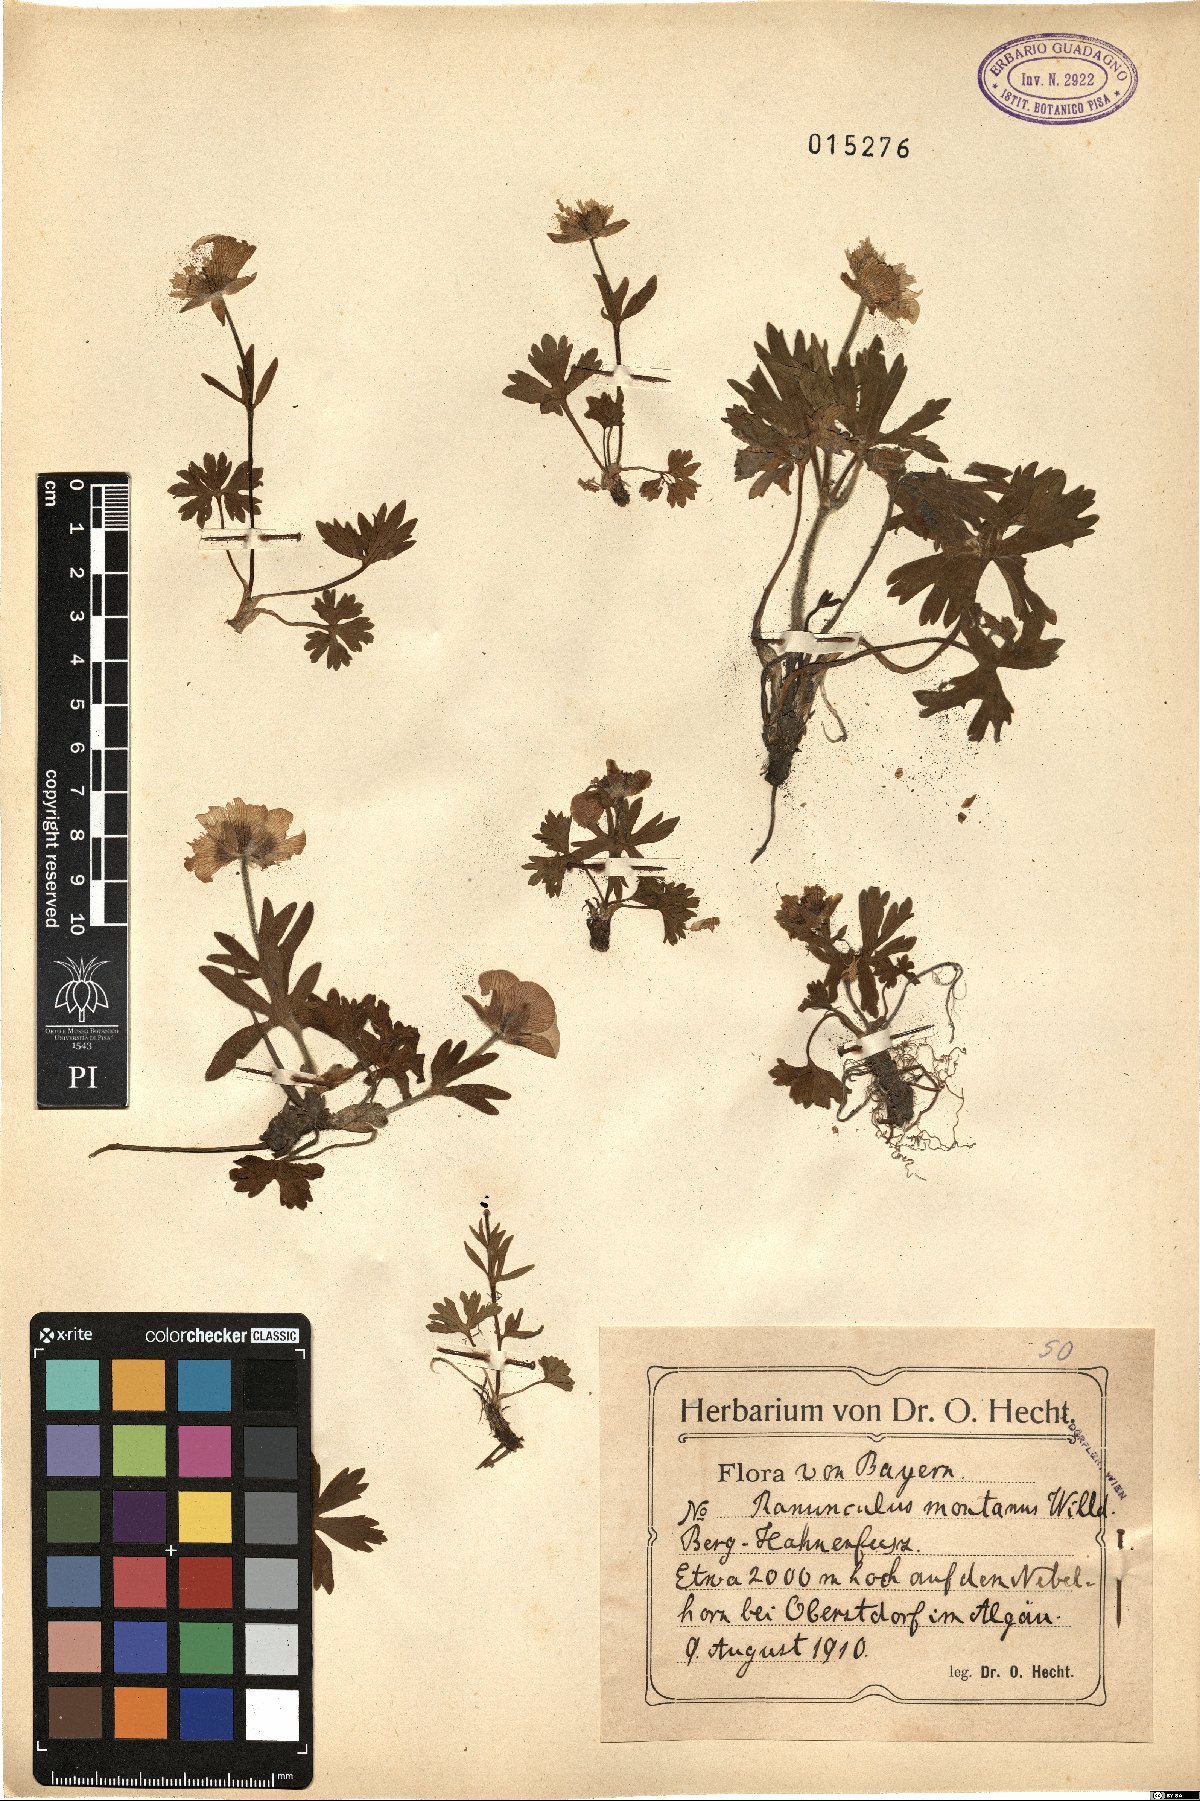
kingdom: Plantae
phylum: Tracheophyta
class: Magnoliopsida
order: Ranunculales
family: Ranunculaceae
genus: Ranunculus
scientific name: Ranunculus montanus
